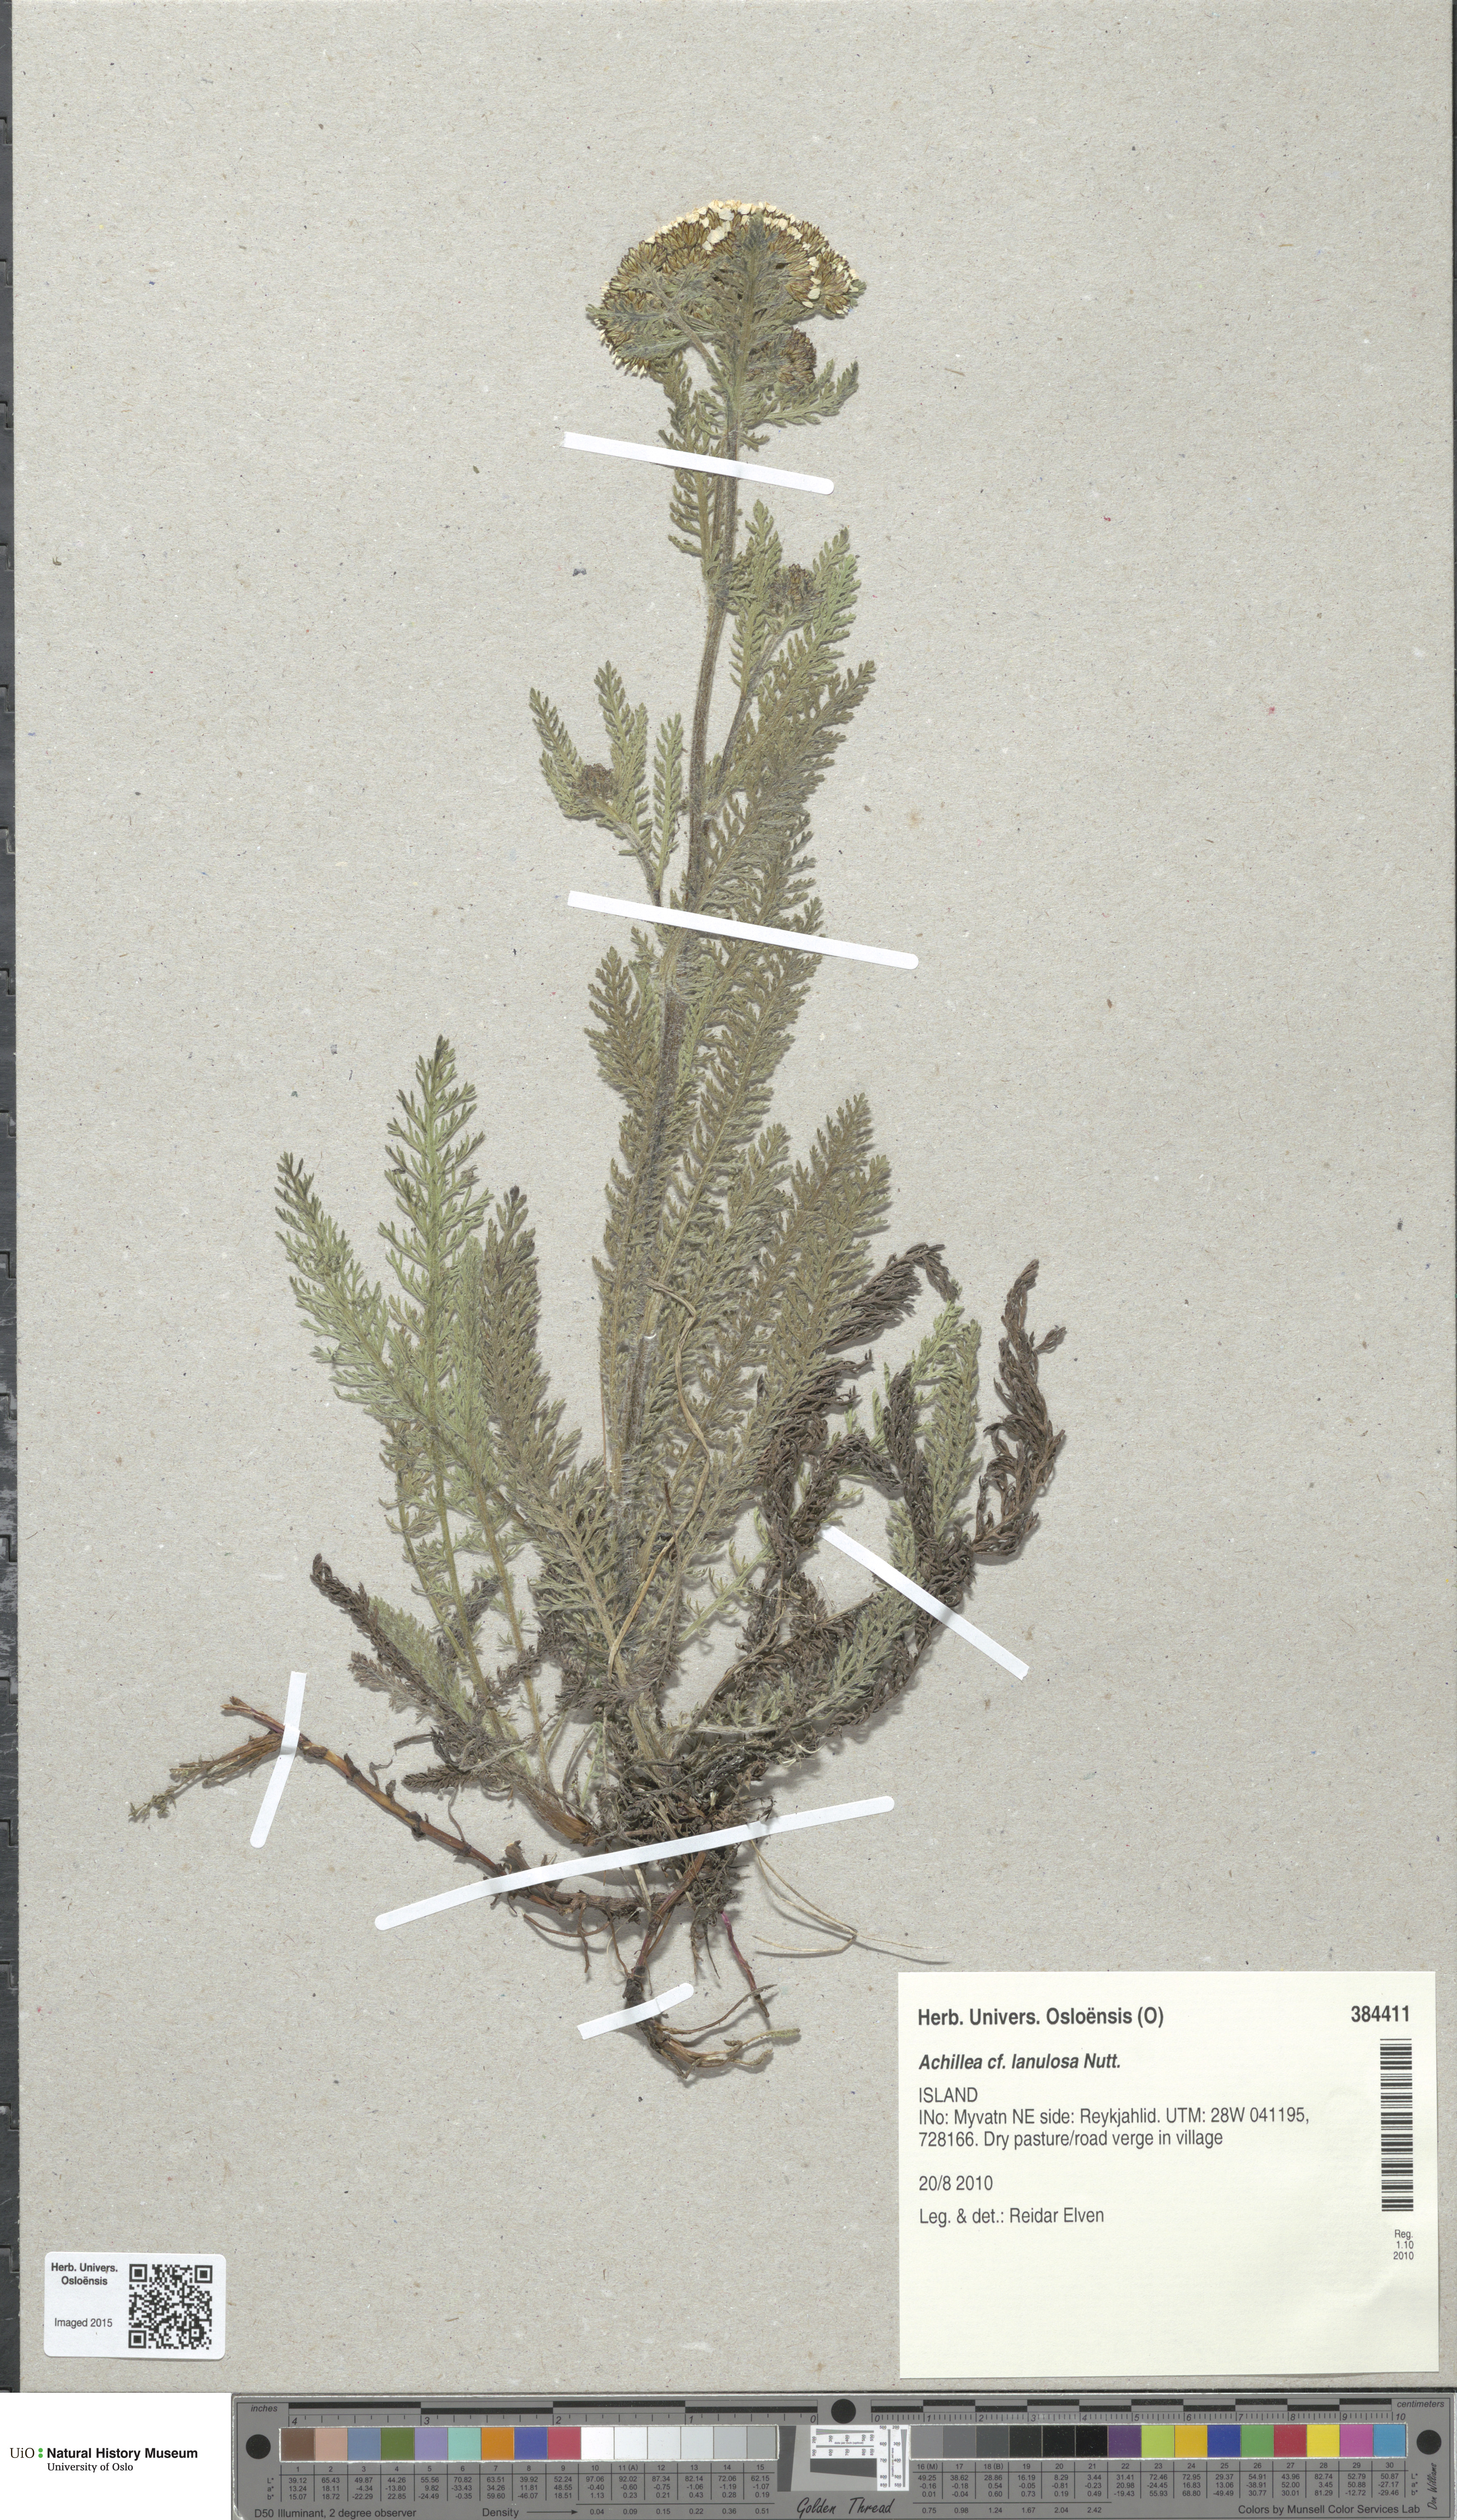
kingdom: Plantae
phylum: Tracheophyta
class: Magnoliopsida
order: Asterales
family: Asteraceae
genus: Achillea
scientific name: Achillea millefolium
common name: Yarrow
